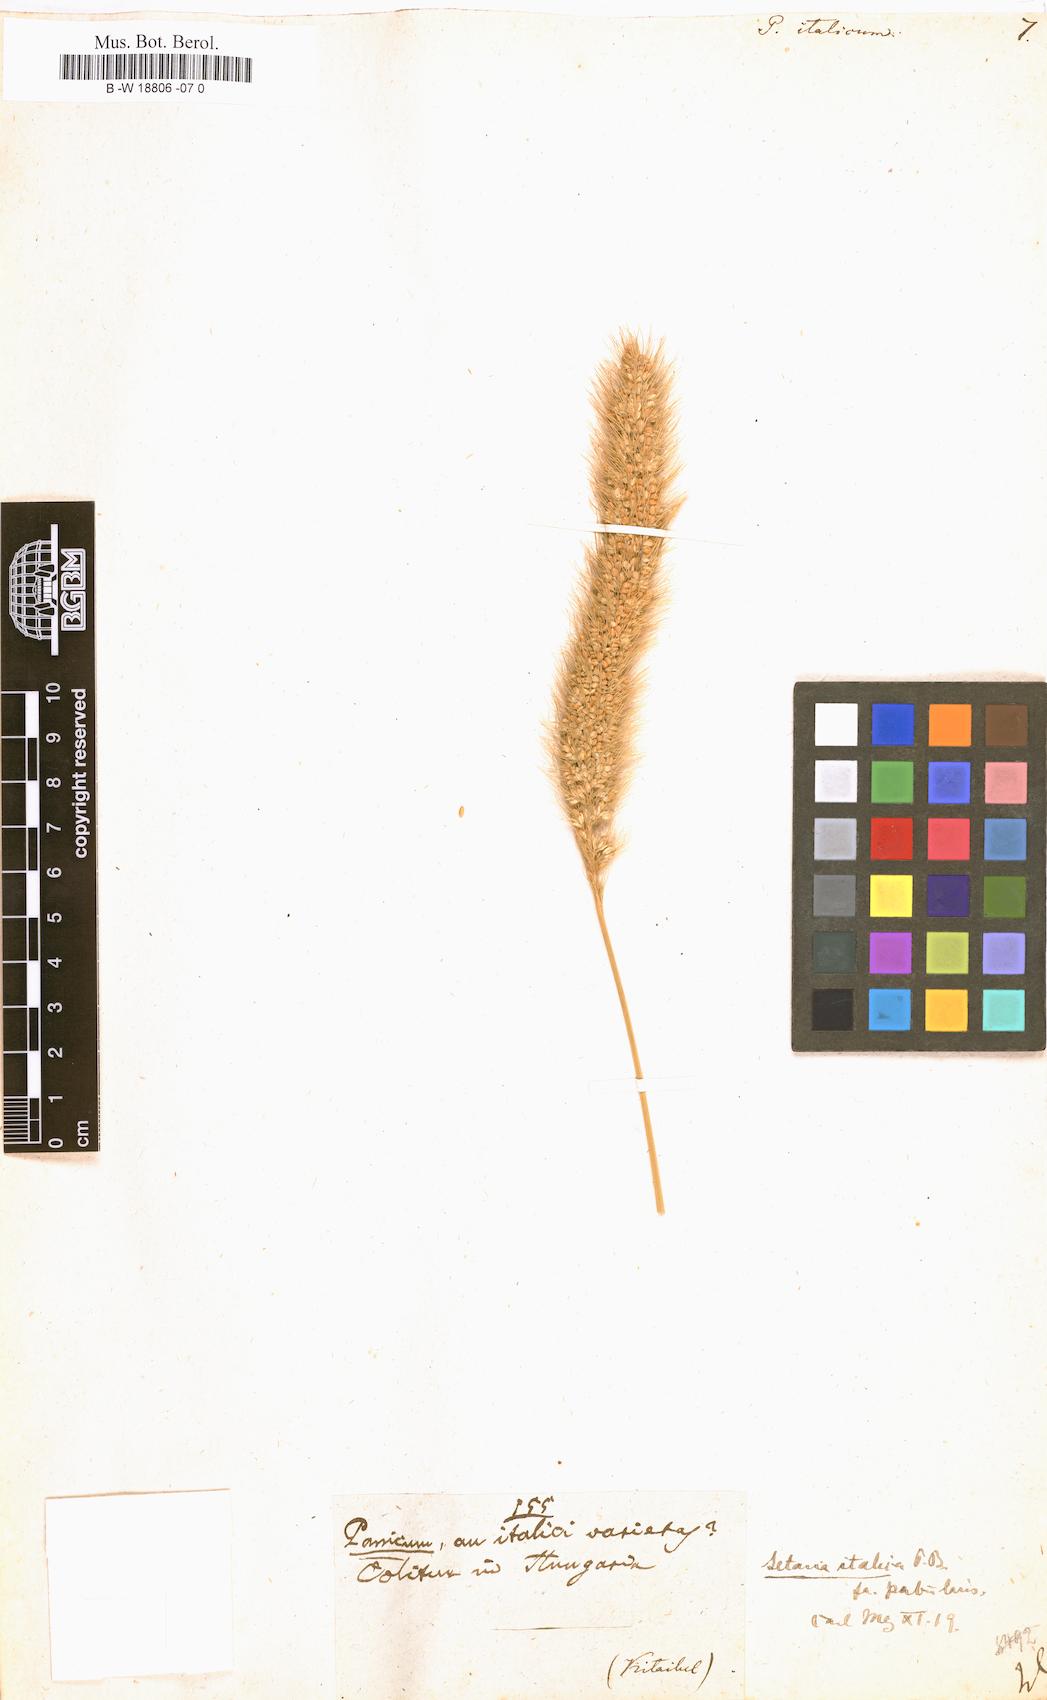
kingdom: Plantae
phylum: Tracheophyta
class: Liliopsida
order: Poales
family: Poaceae
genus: Setaria
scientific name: Setaria italica
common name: Foxtail bristle-grass
